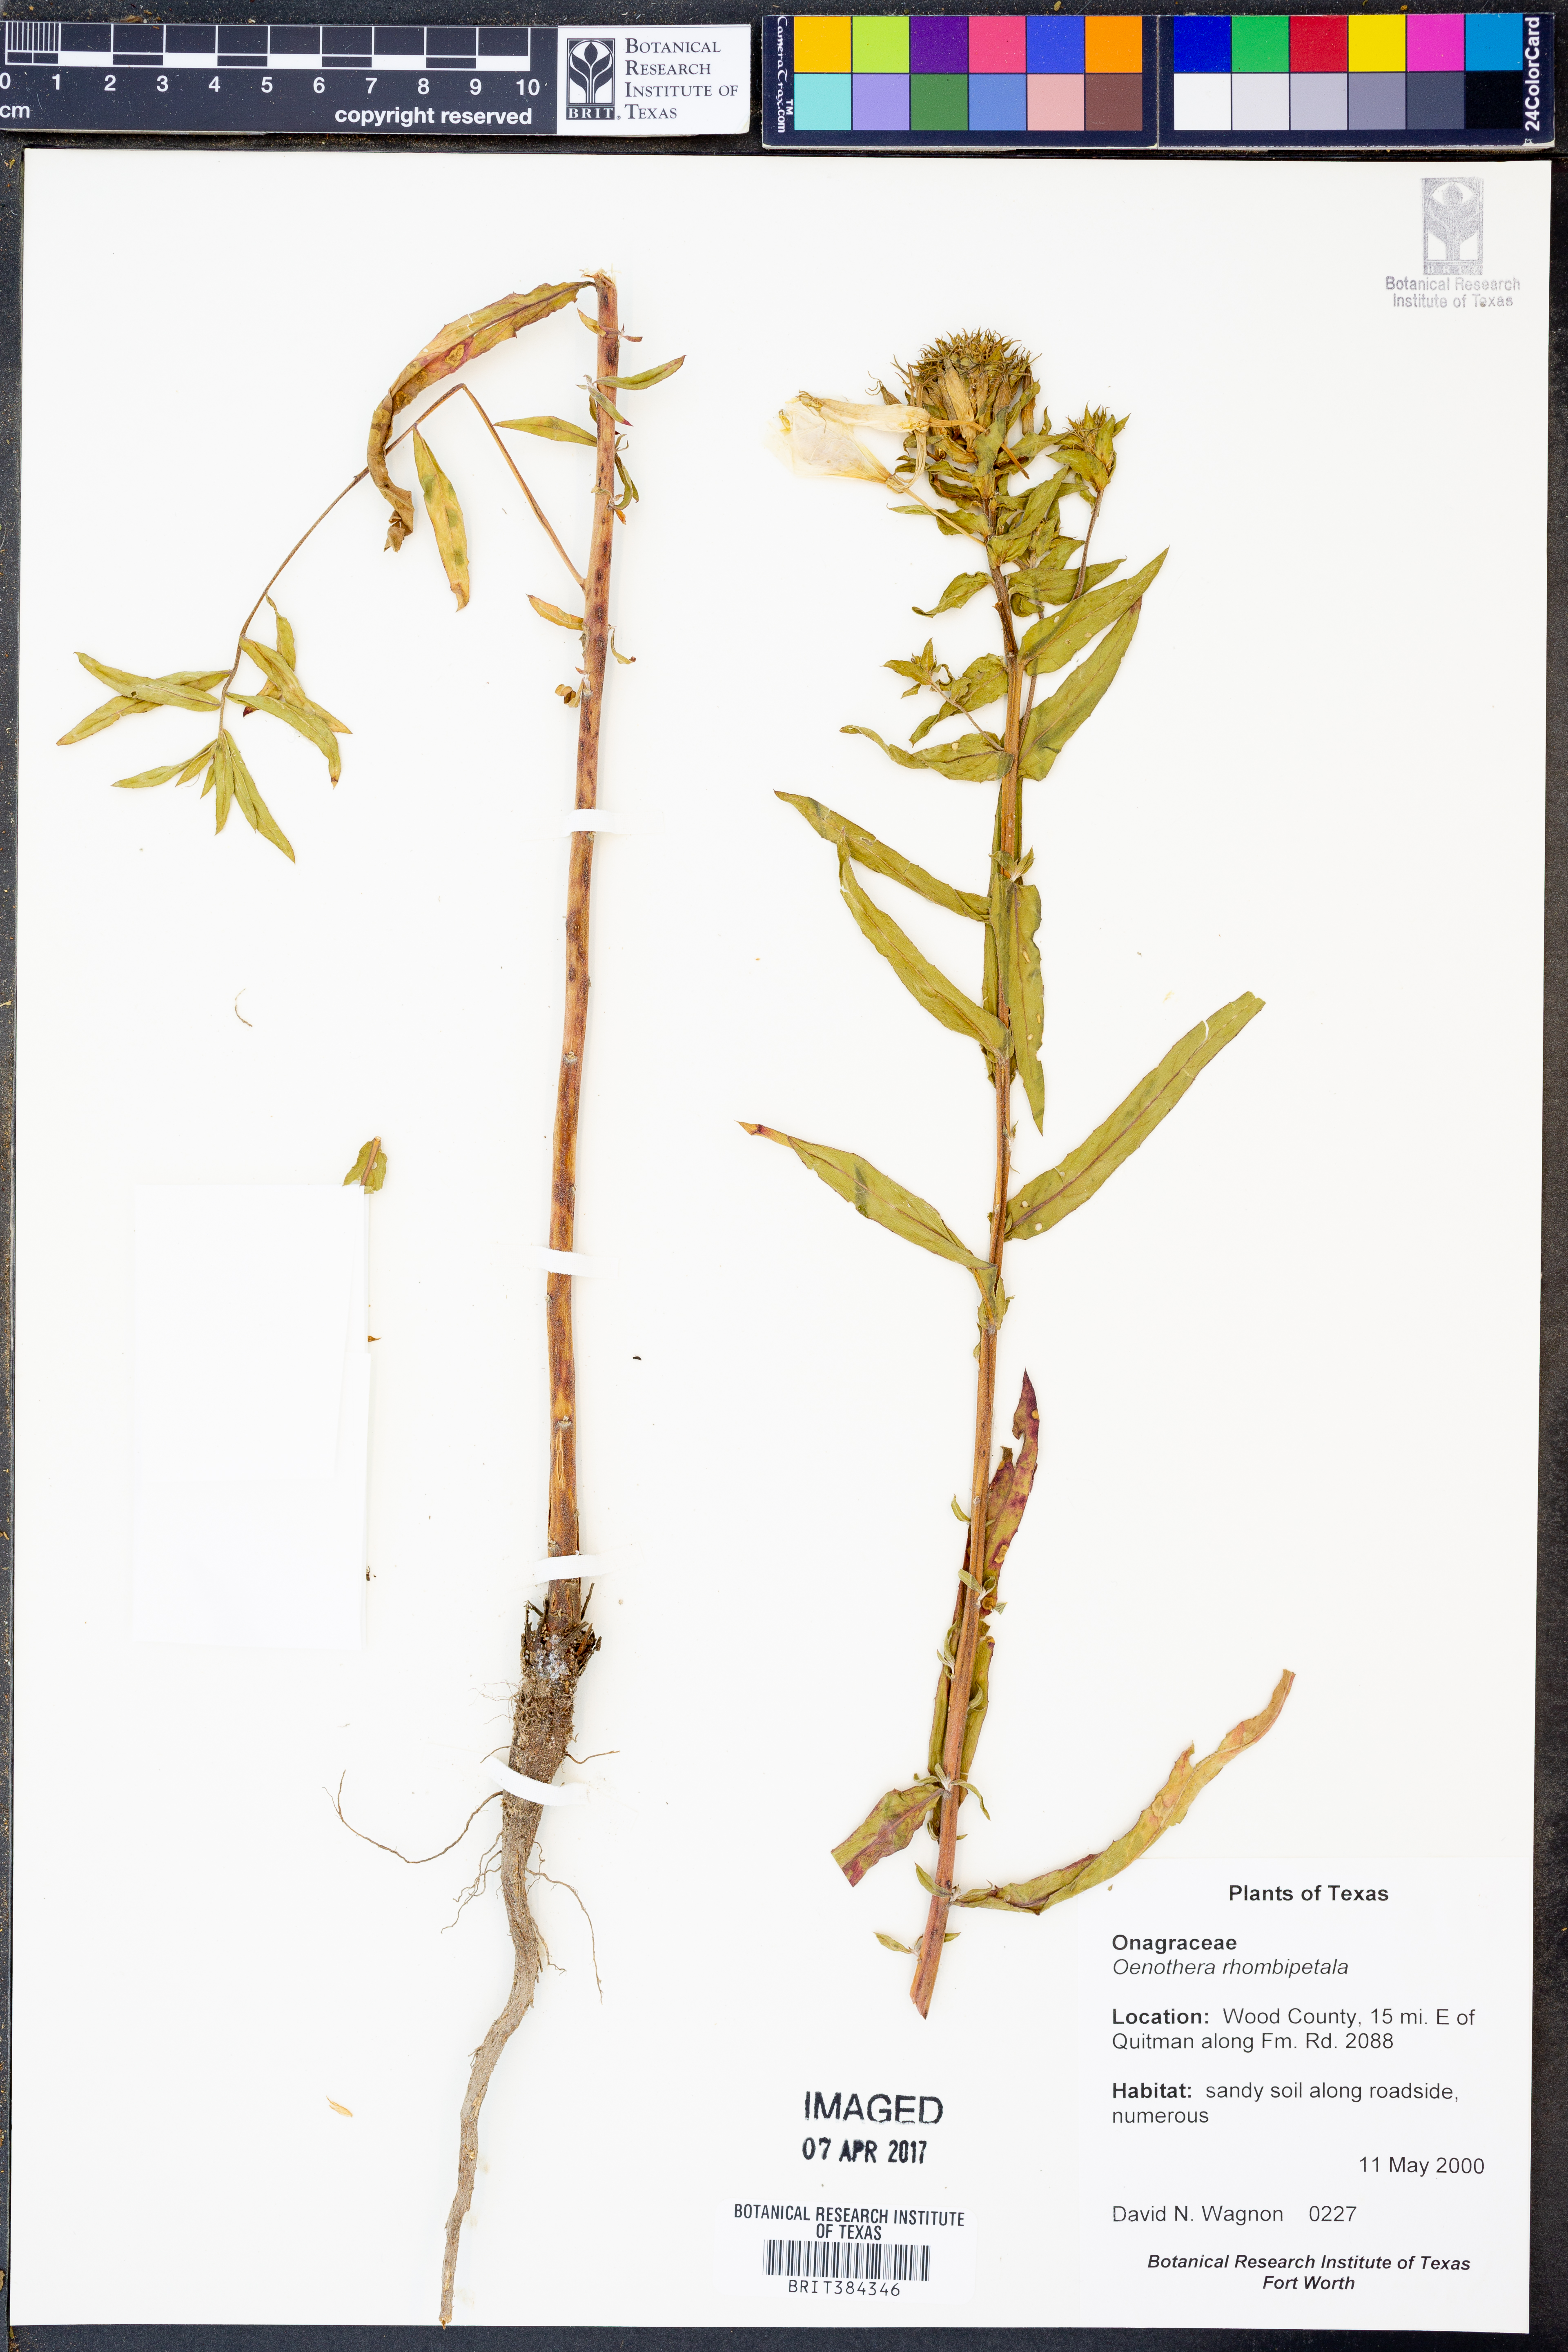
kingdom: Plantae
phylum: Tracheophyta
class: Magnoliopsida
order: Myrtales
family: Onagraceae
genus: Oenothera
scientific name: Oenothera rhombipetala
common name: Four-points evening-primrose
